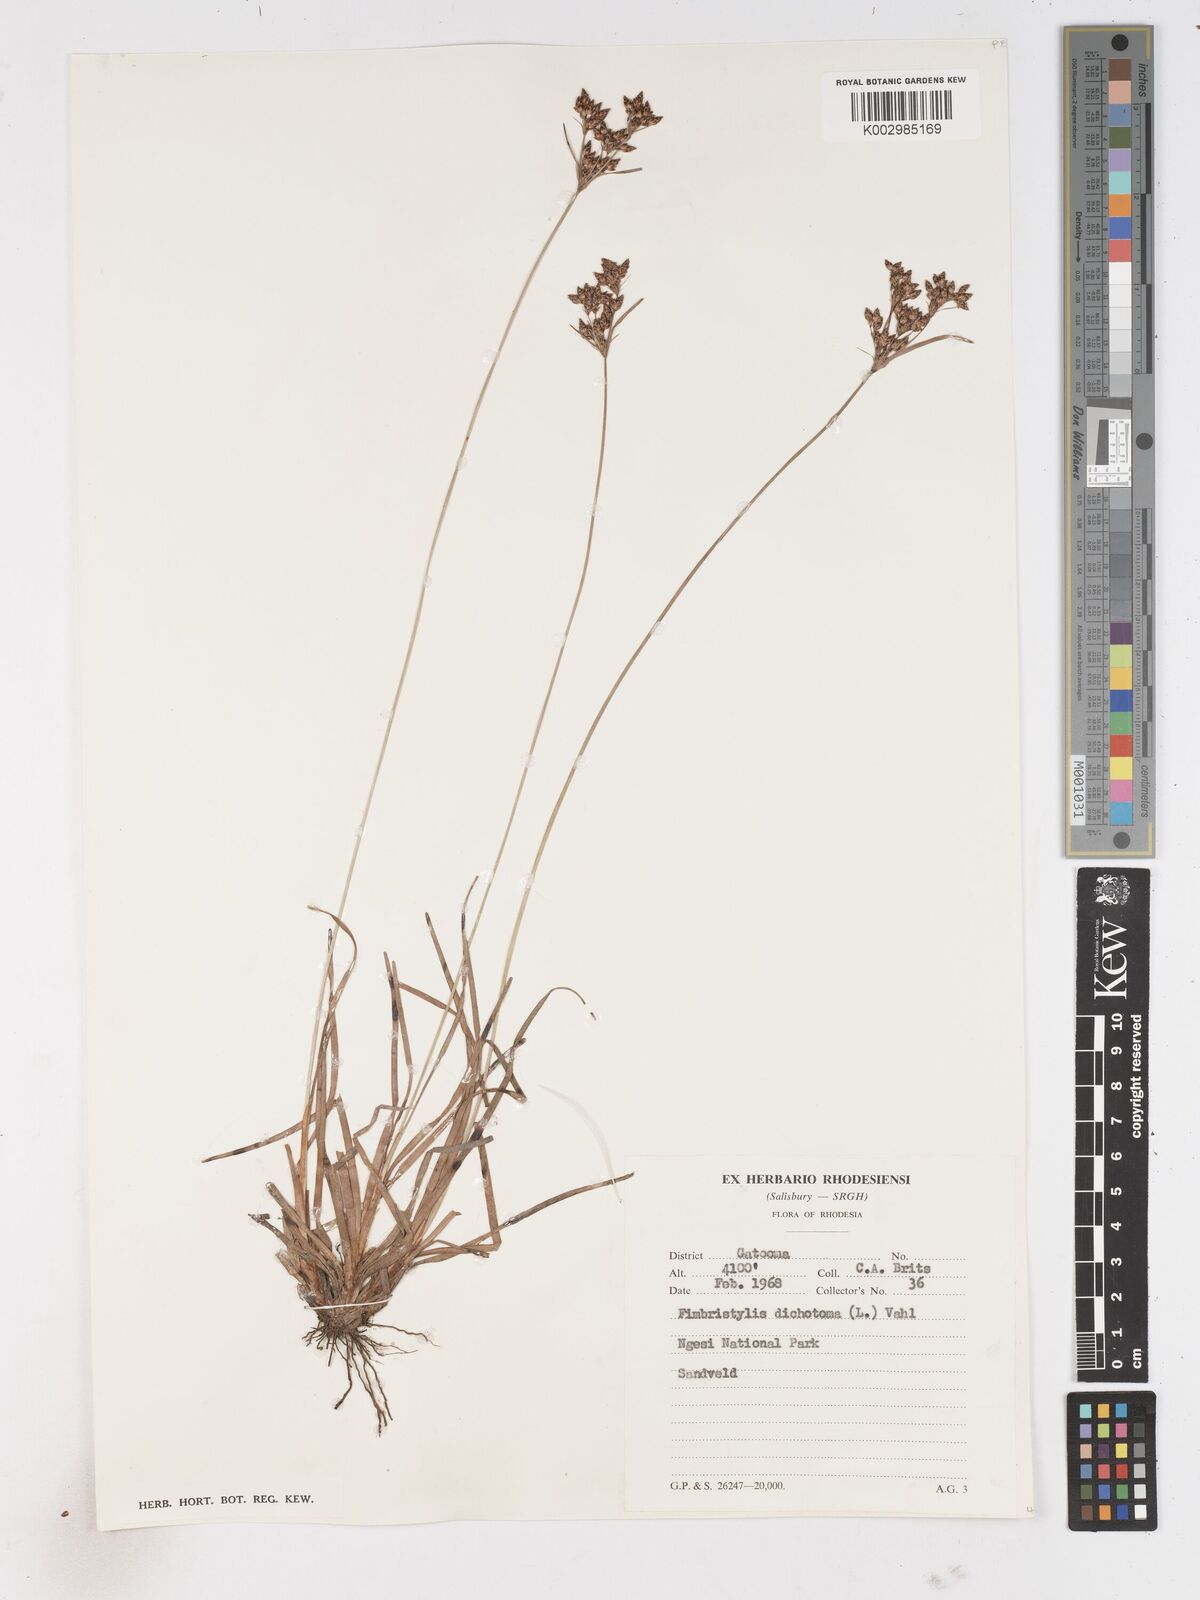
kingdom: Plantae
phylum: Tracheophyta
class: Liliopsida
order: Poales
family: Cyperaceae
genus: Fimbristylis
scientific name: Fimbristylis dichotoma
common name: Forked fimbry
